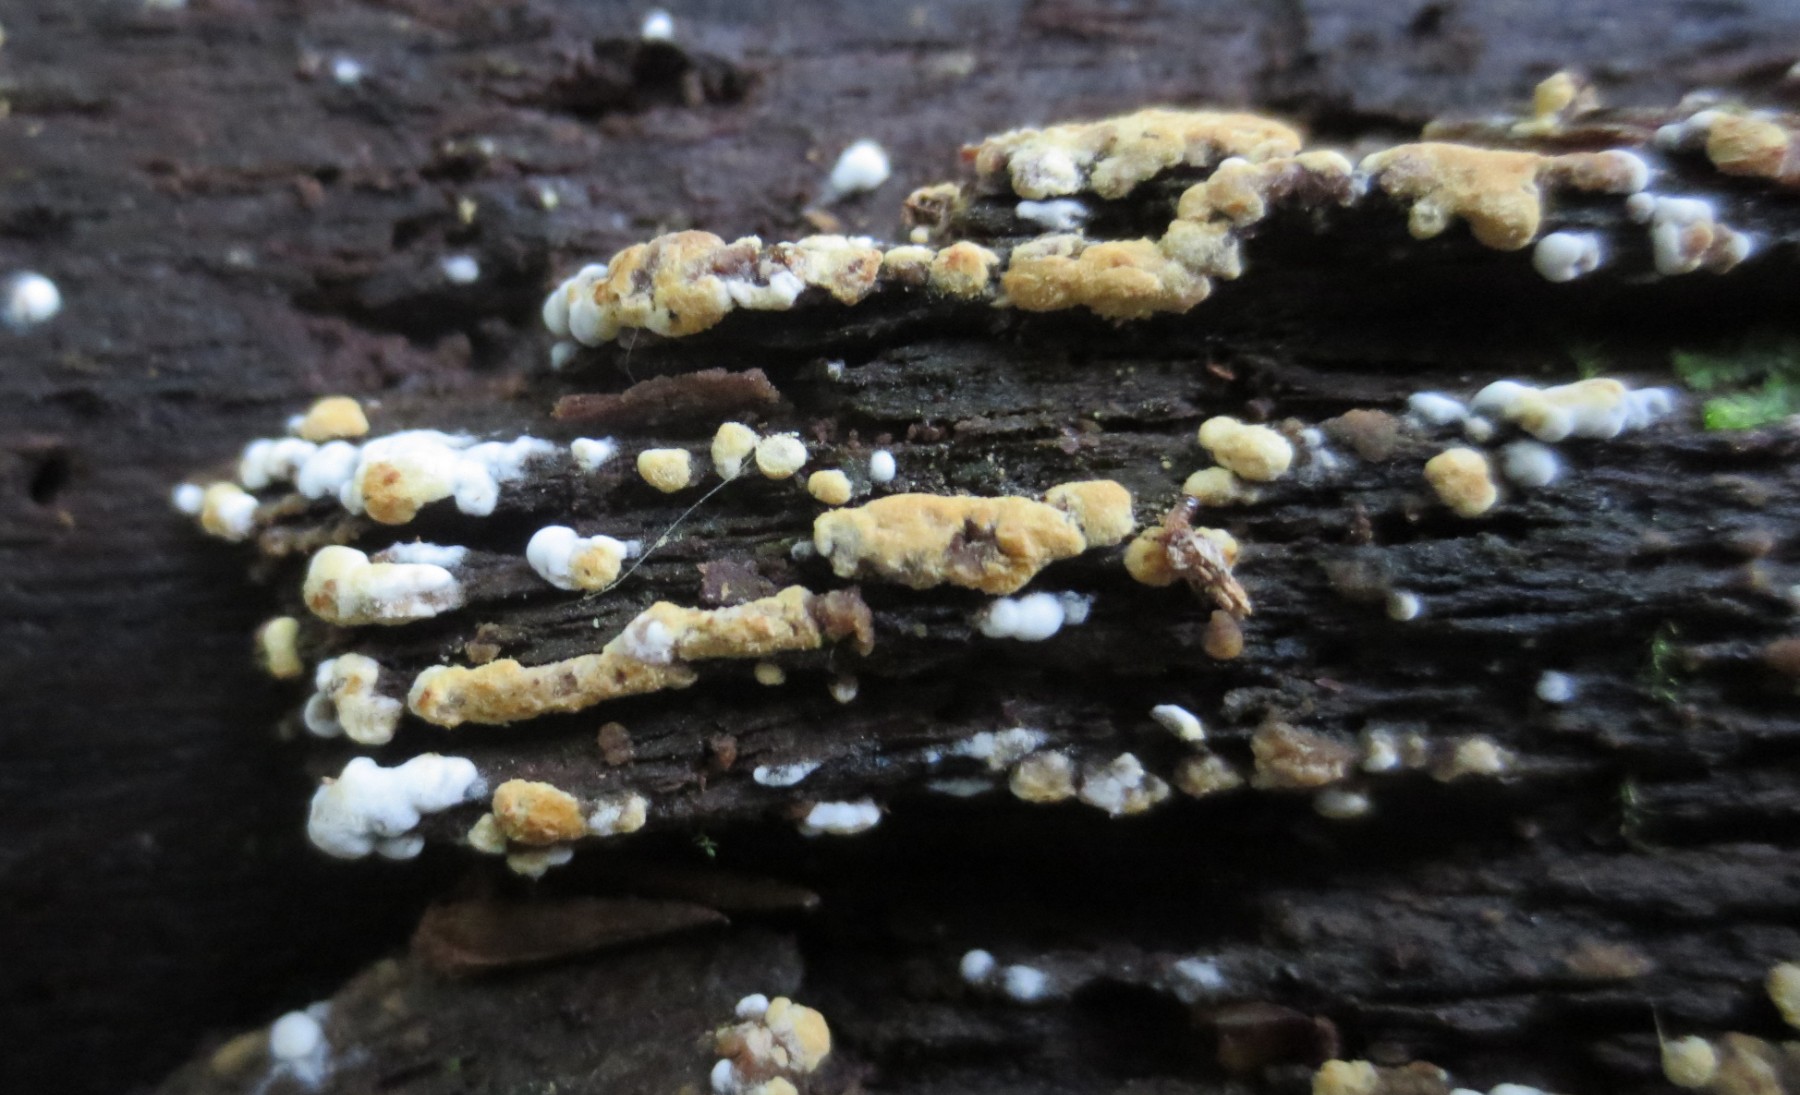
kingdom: Fungi
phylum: Basidiomycota
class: Agaricomycetes
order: Cantharellales
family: Botryobasidiaceae
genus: Botryobasidium
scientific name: Botryobasidium aureum
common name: gylden spindhinde
